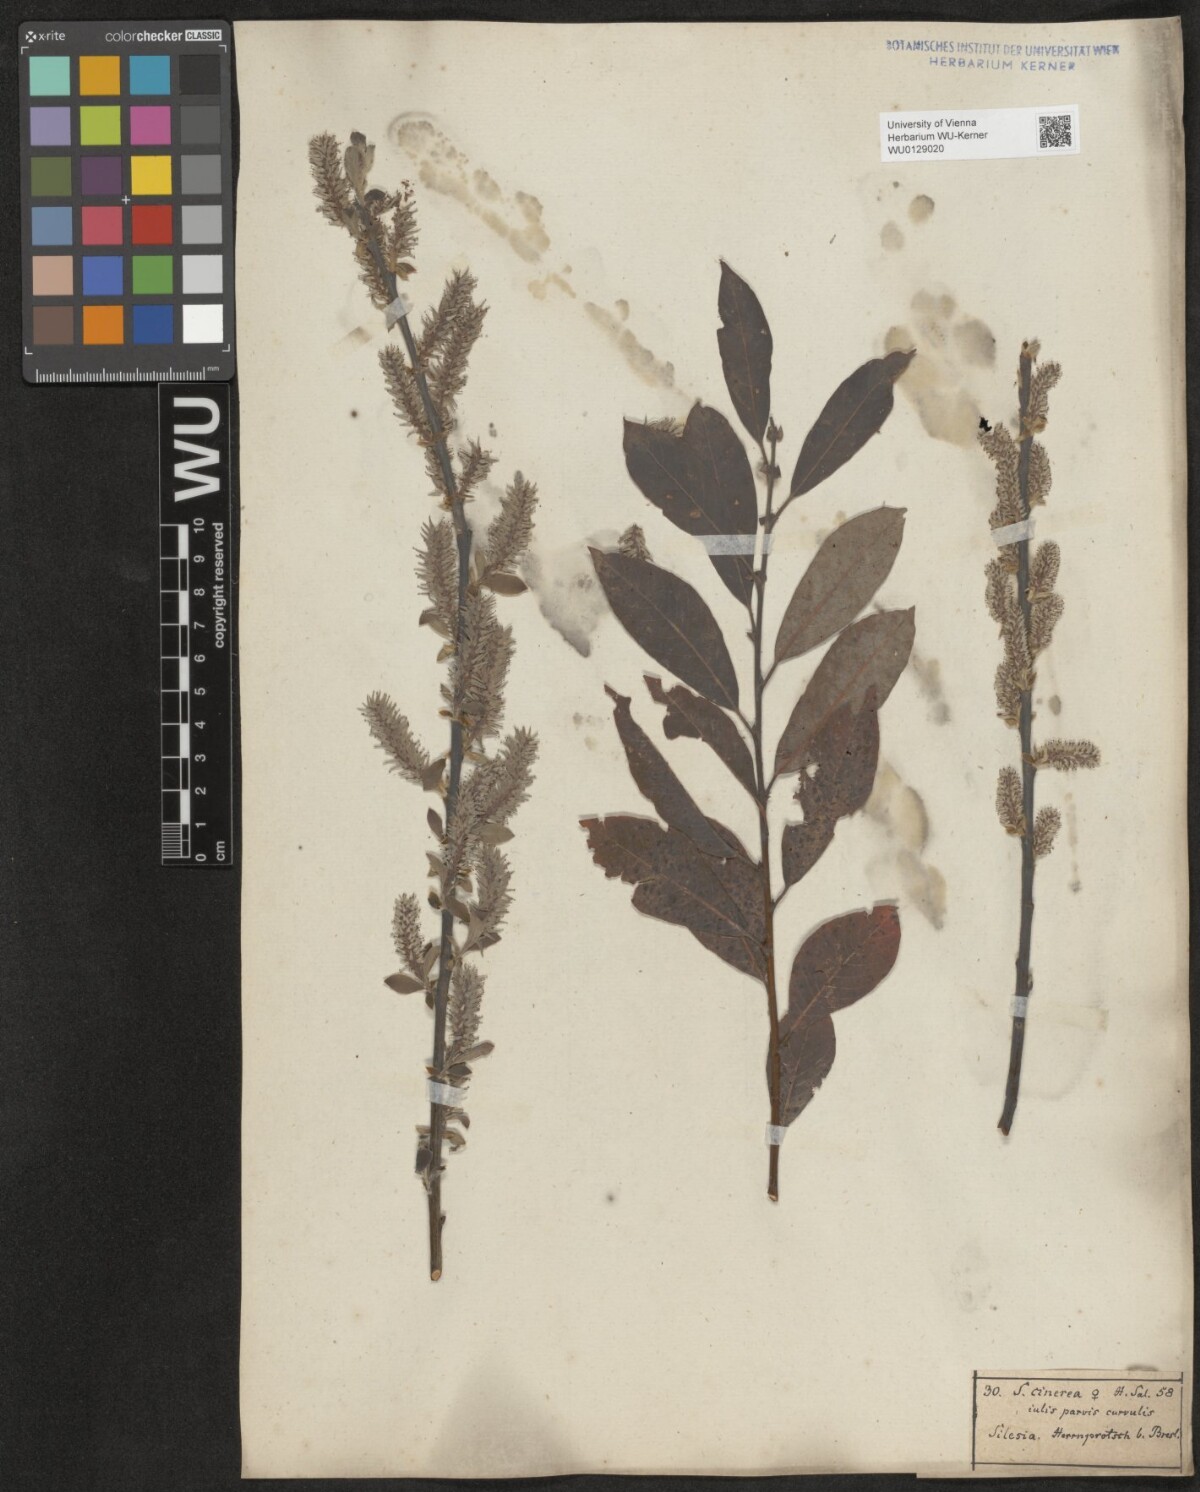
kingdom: Plantae
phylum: Tracheophyta
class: Magnoliopsida
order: Malpighiales
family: Salicaceae
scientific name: Salicaceae
